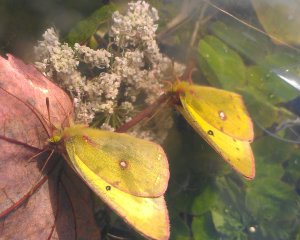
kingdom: Animalia
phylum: Arthropoda
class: Insecta
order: Lepidoptera
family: Pieridae
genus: Colias
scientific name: Colias philodice
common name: Clouded Sulphur
